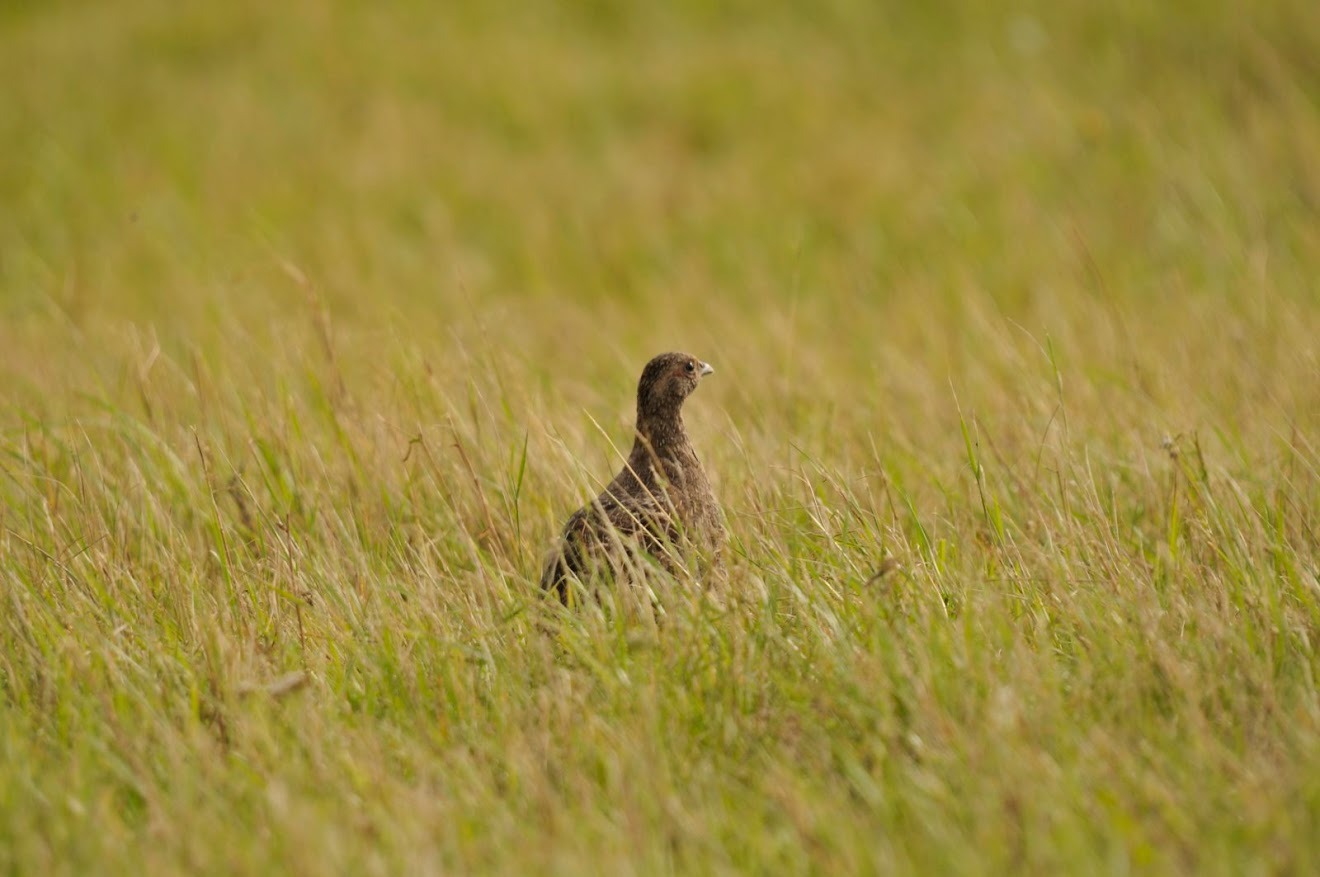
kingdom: Animalia
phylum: Chordata
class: Aves
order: Galliformes
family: Phasianidae
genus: Perdix
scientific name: Perdix perdix
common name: Agerhøne
